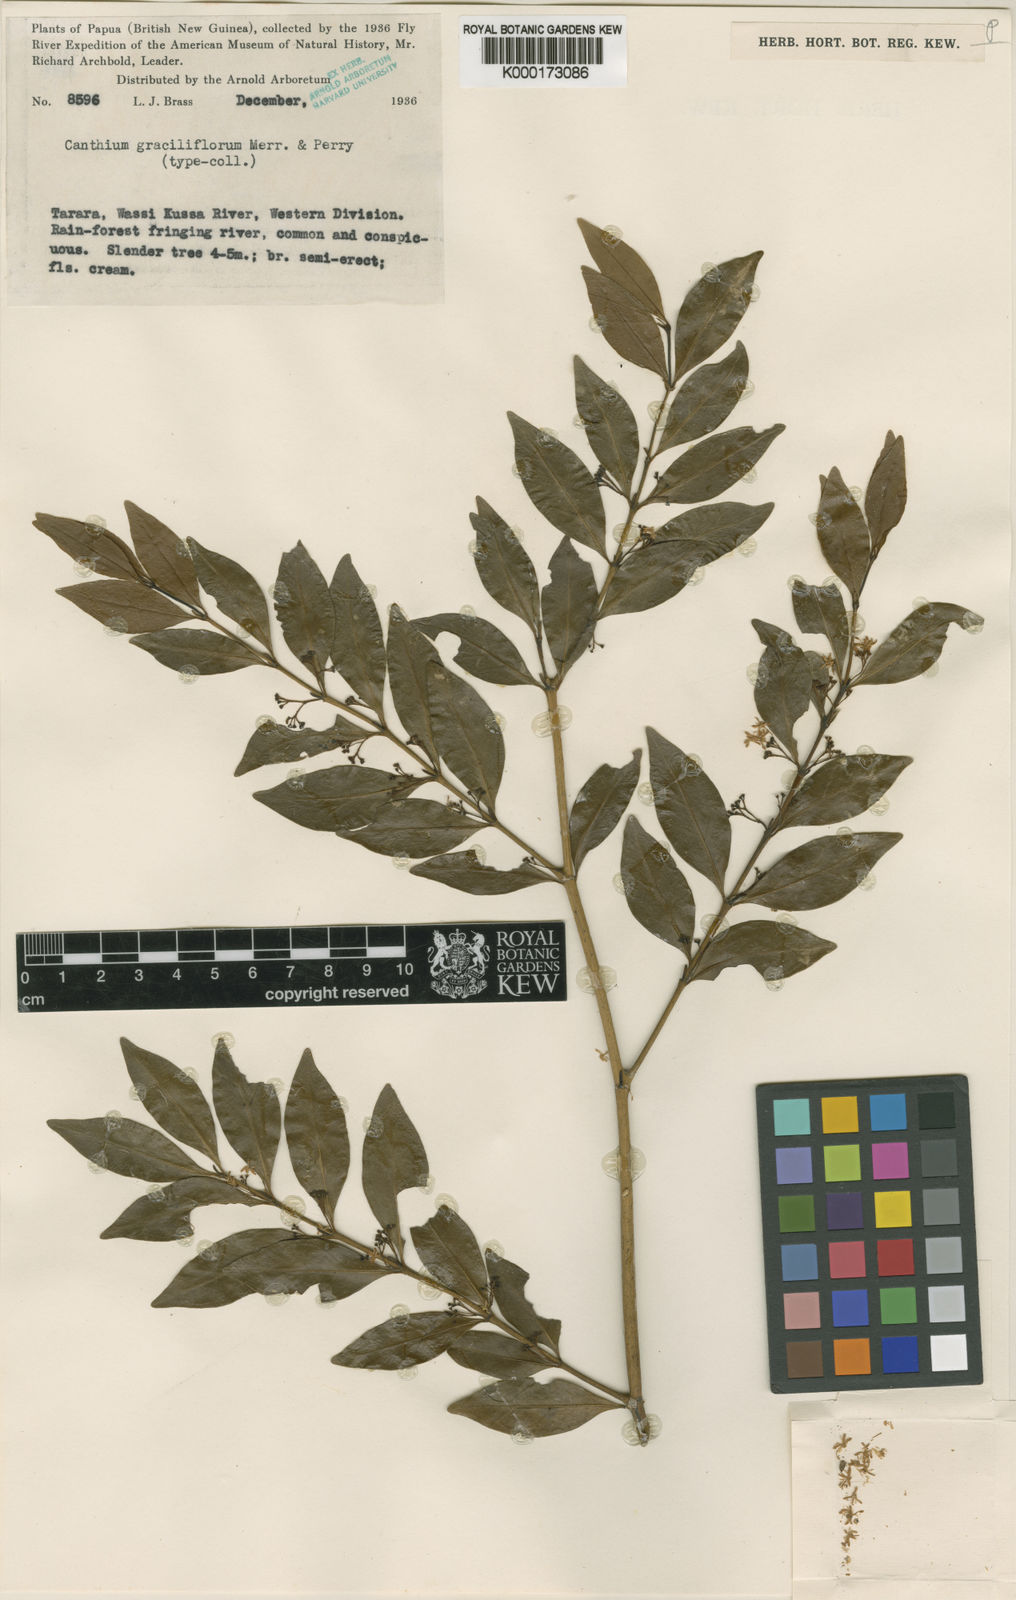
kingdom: Plantae
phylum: Tracheophyta
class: Magnoliopsida
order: Gentianales
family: Rubiaceae
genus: Psydrax
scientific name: Psydrax graciliflorus
